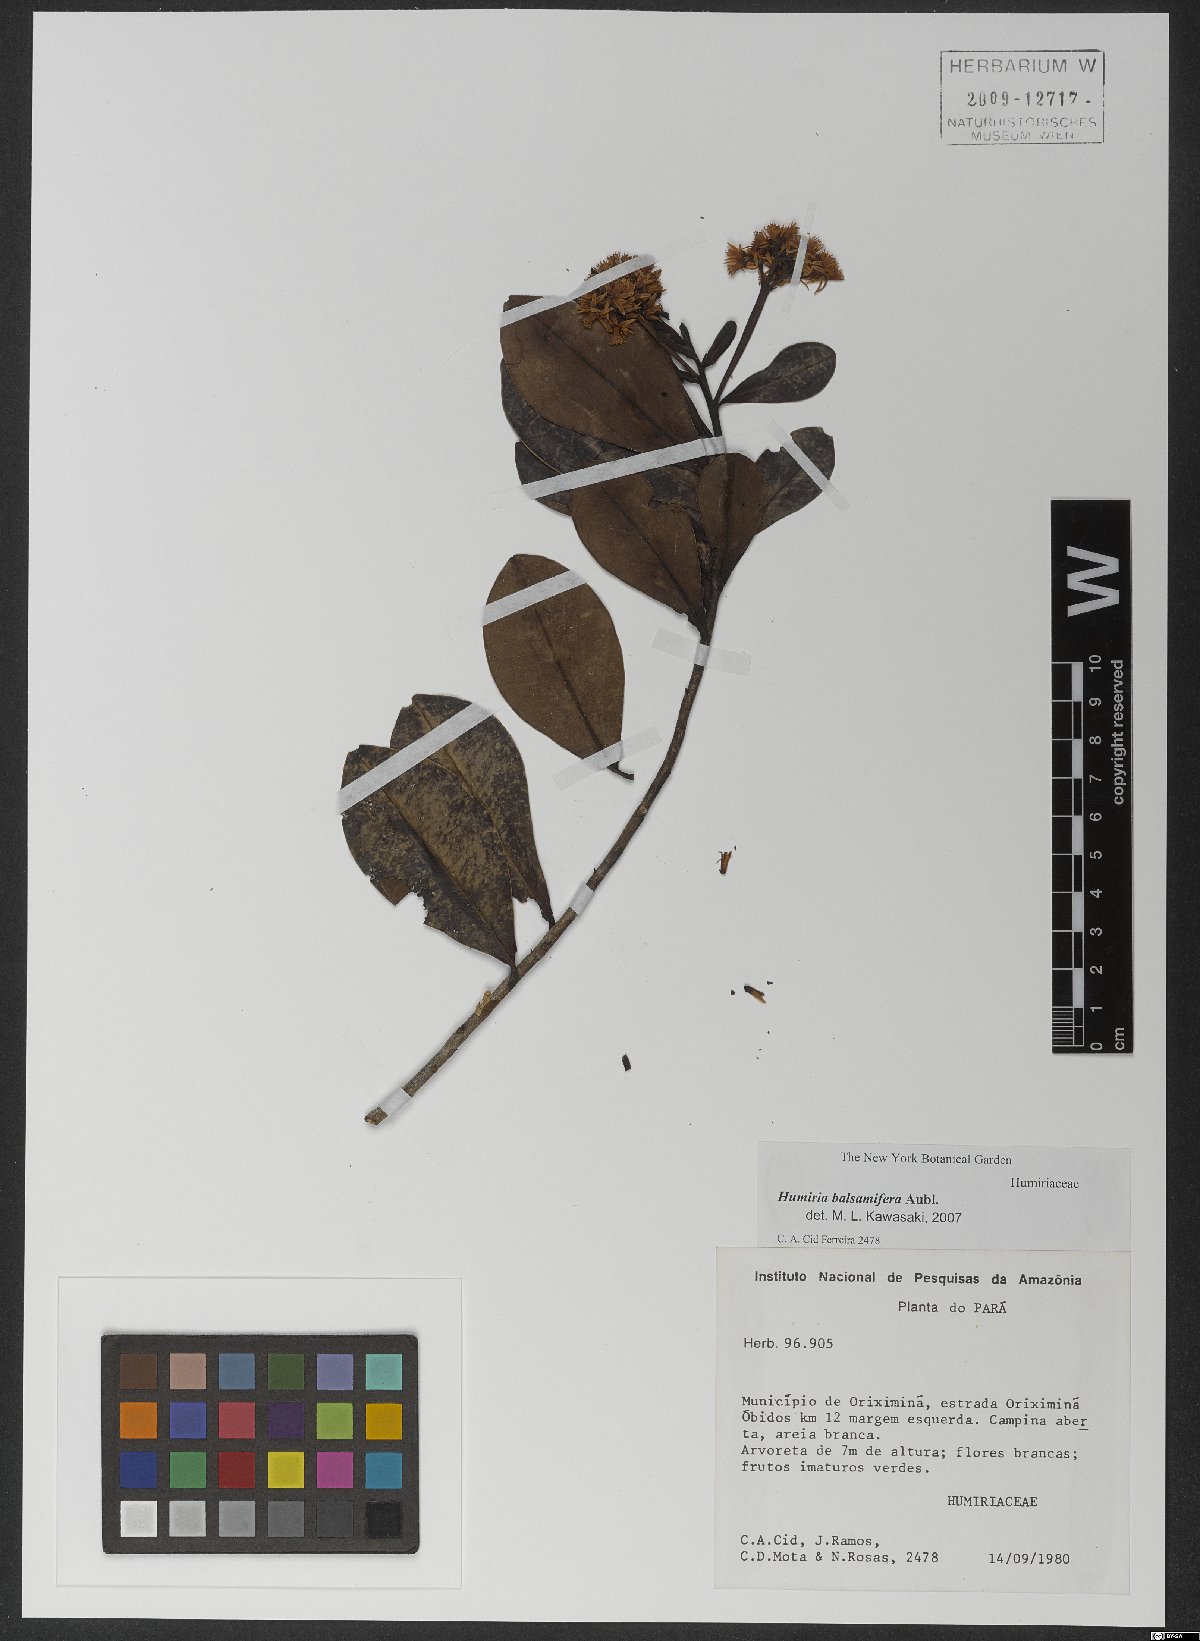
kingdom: Plantae
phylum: Tracheophyta
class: Magnoliopsida
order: Malpighiales
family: Humiriaceae
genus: Humiria
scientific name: Humiria balsamifera
